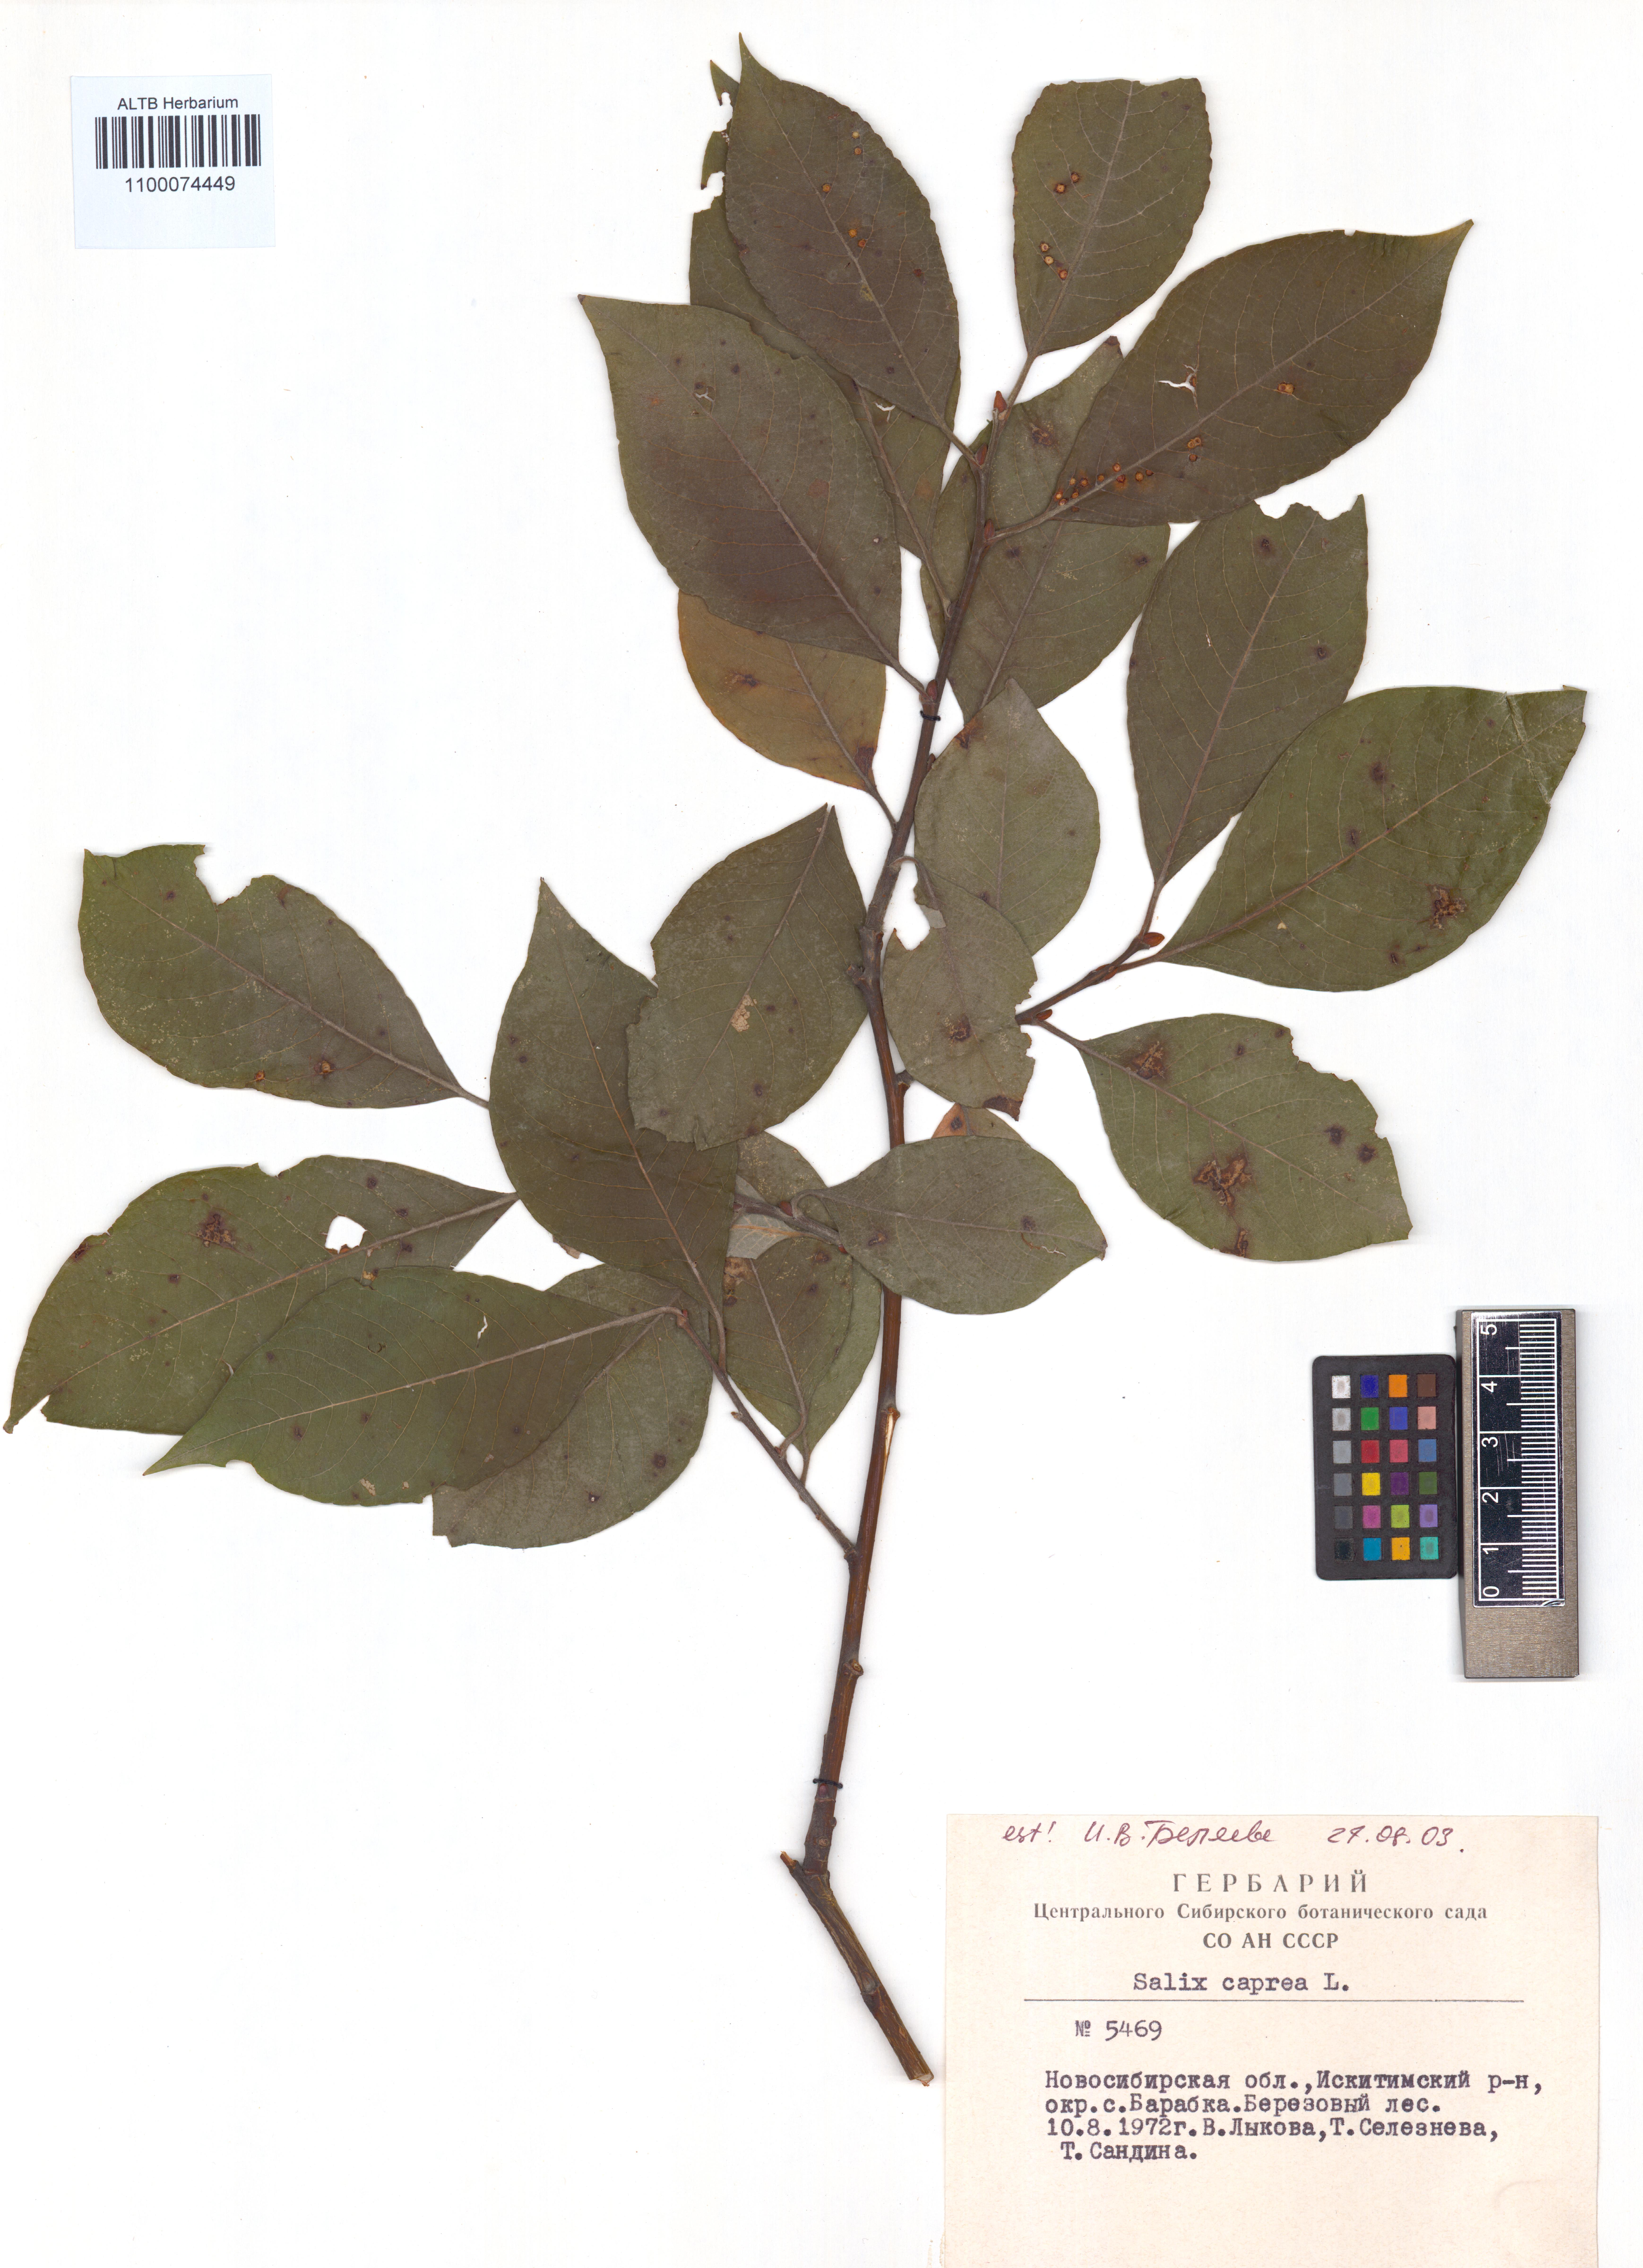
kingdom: Plantae
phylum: Tracheophyta
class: Magnoliopsida
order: Malpighiales
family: Salicaceae
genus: Salix
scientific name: Salix caprea
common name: Goat willow
